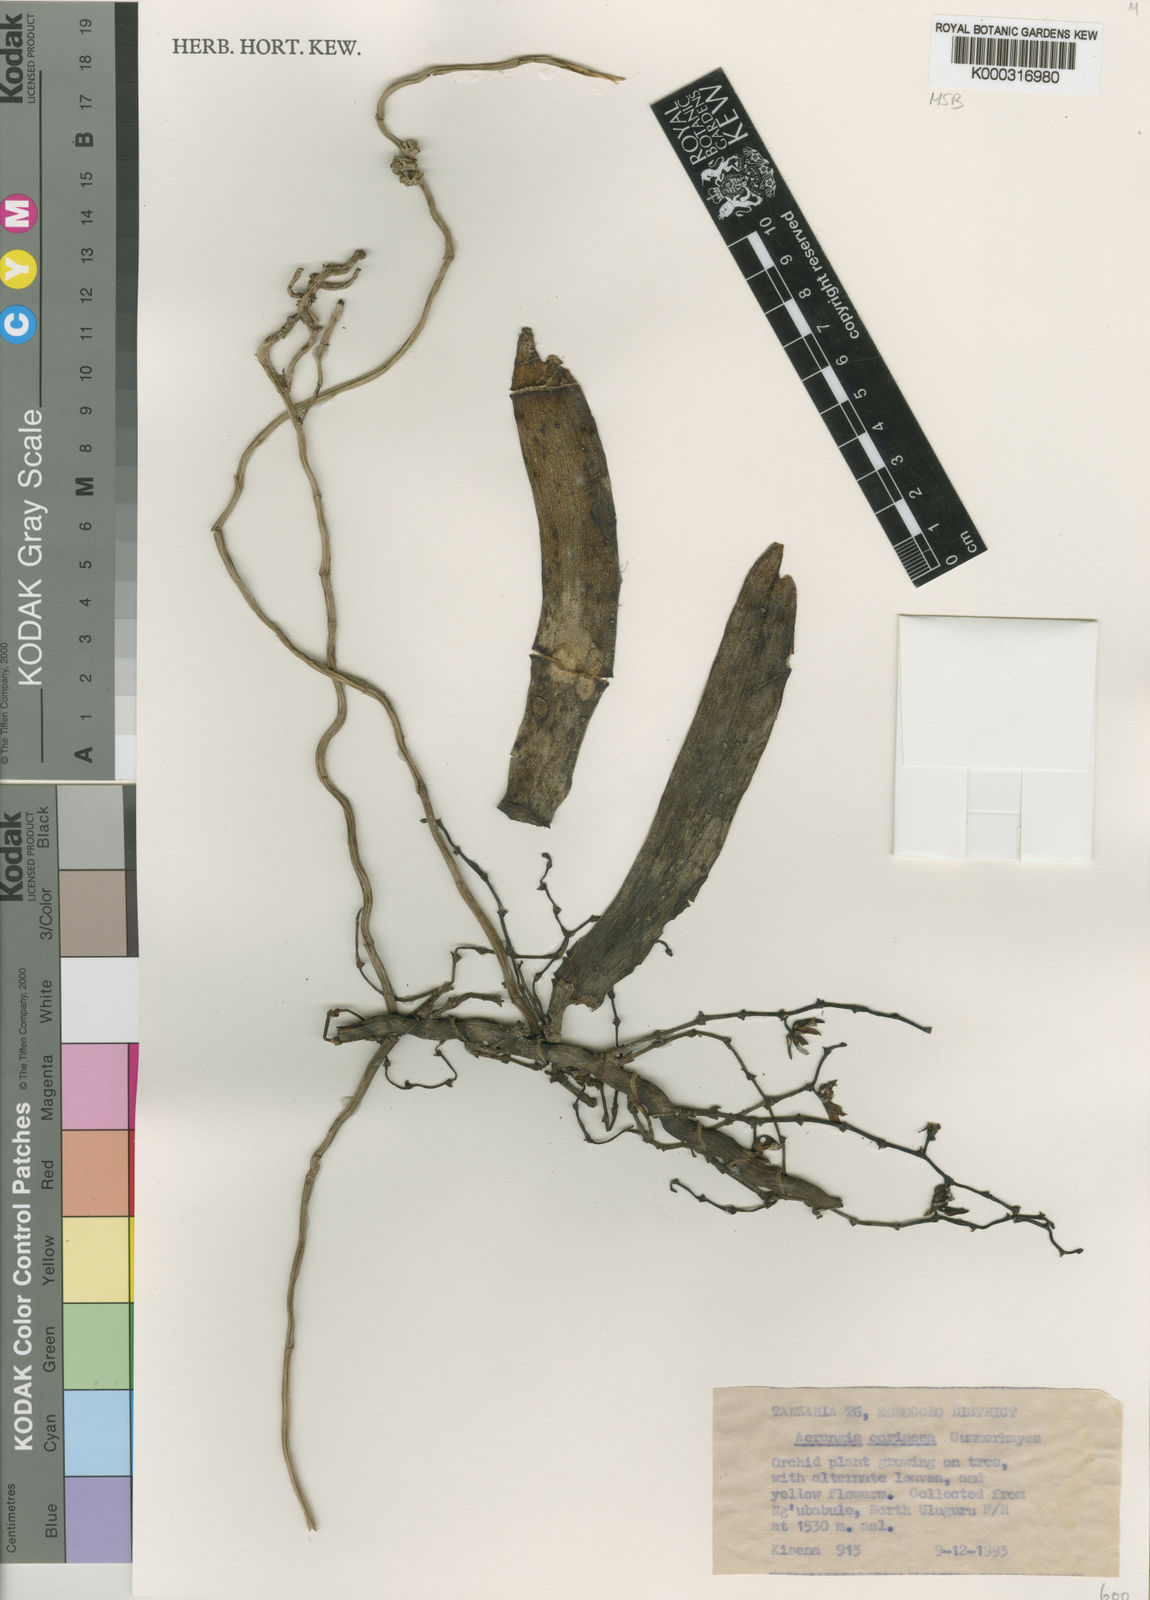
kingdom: Plantae
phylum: Tracheophyta
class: Liliopsida
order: Asparagales
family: Orchidaceae
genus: Aerangis
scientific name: Aerangis coriacea
